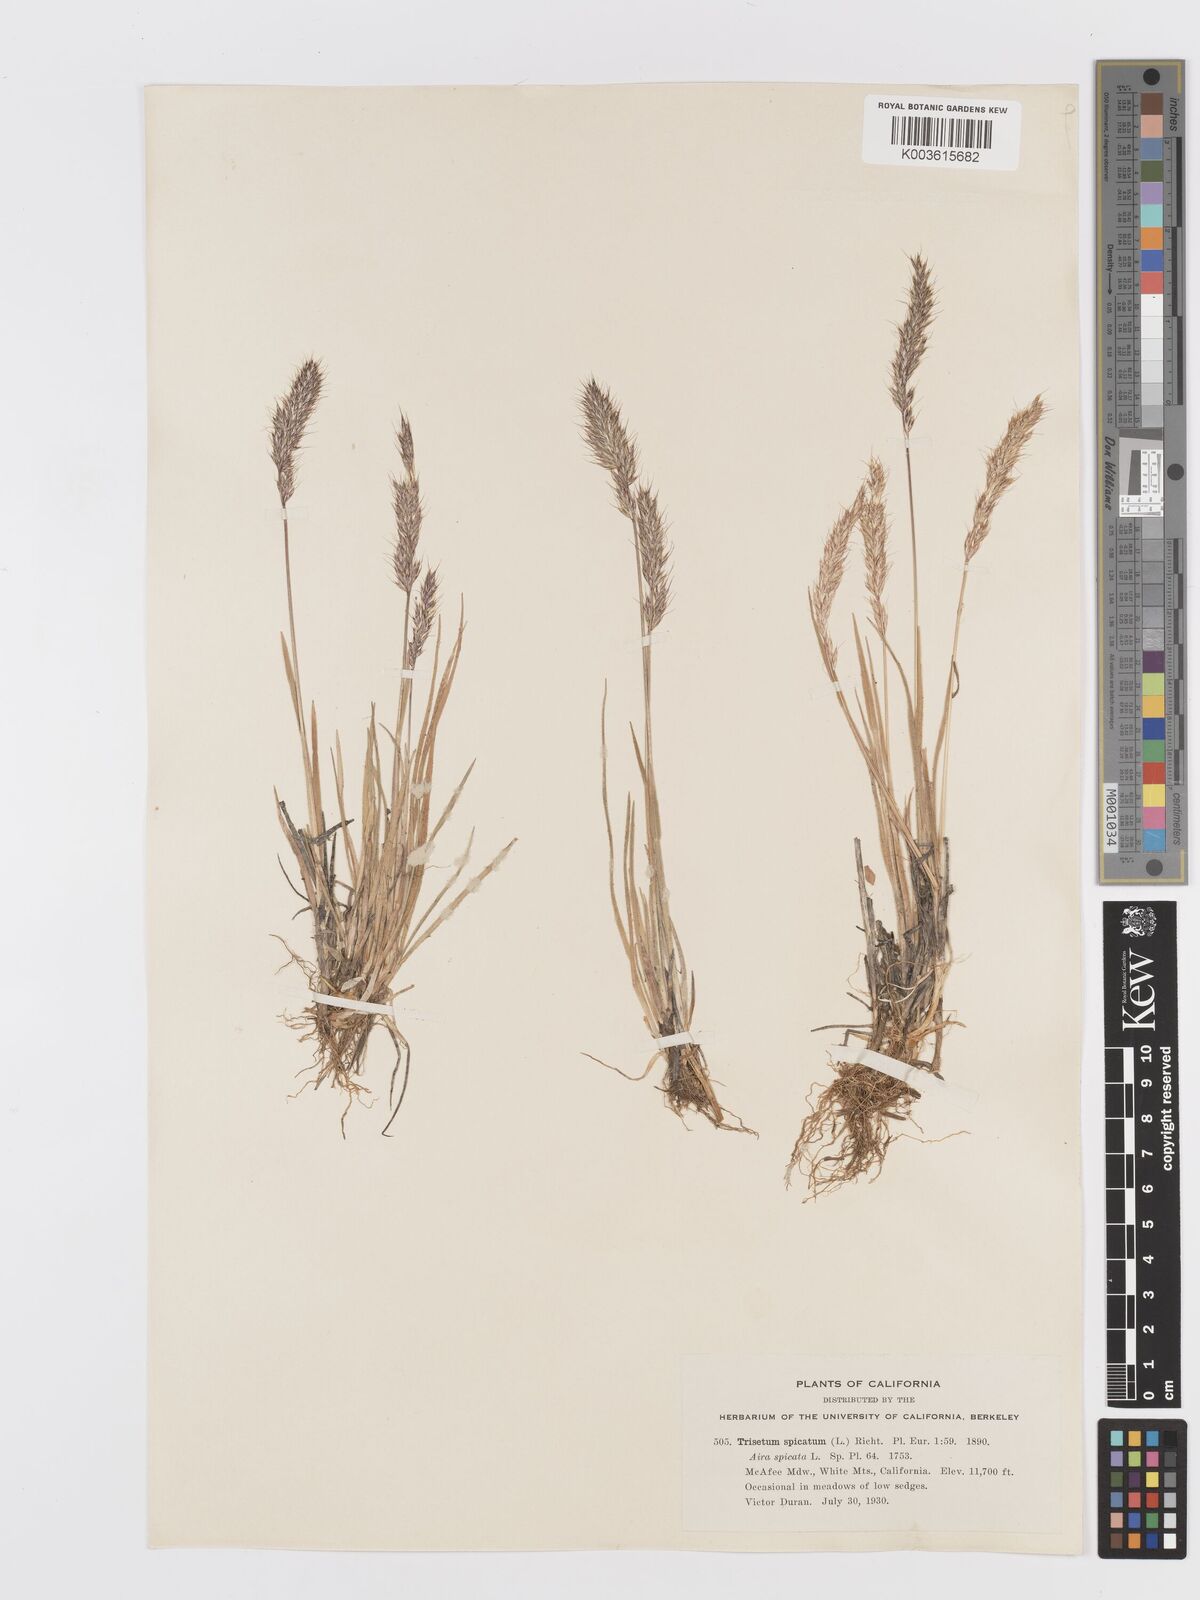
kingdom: Plantae
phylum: Tracheophyta
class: Liliopsida
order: Poales
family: Poaceae
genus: Koeleria
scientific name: Koeleria spicata
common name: Mountain trisetum
